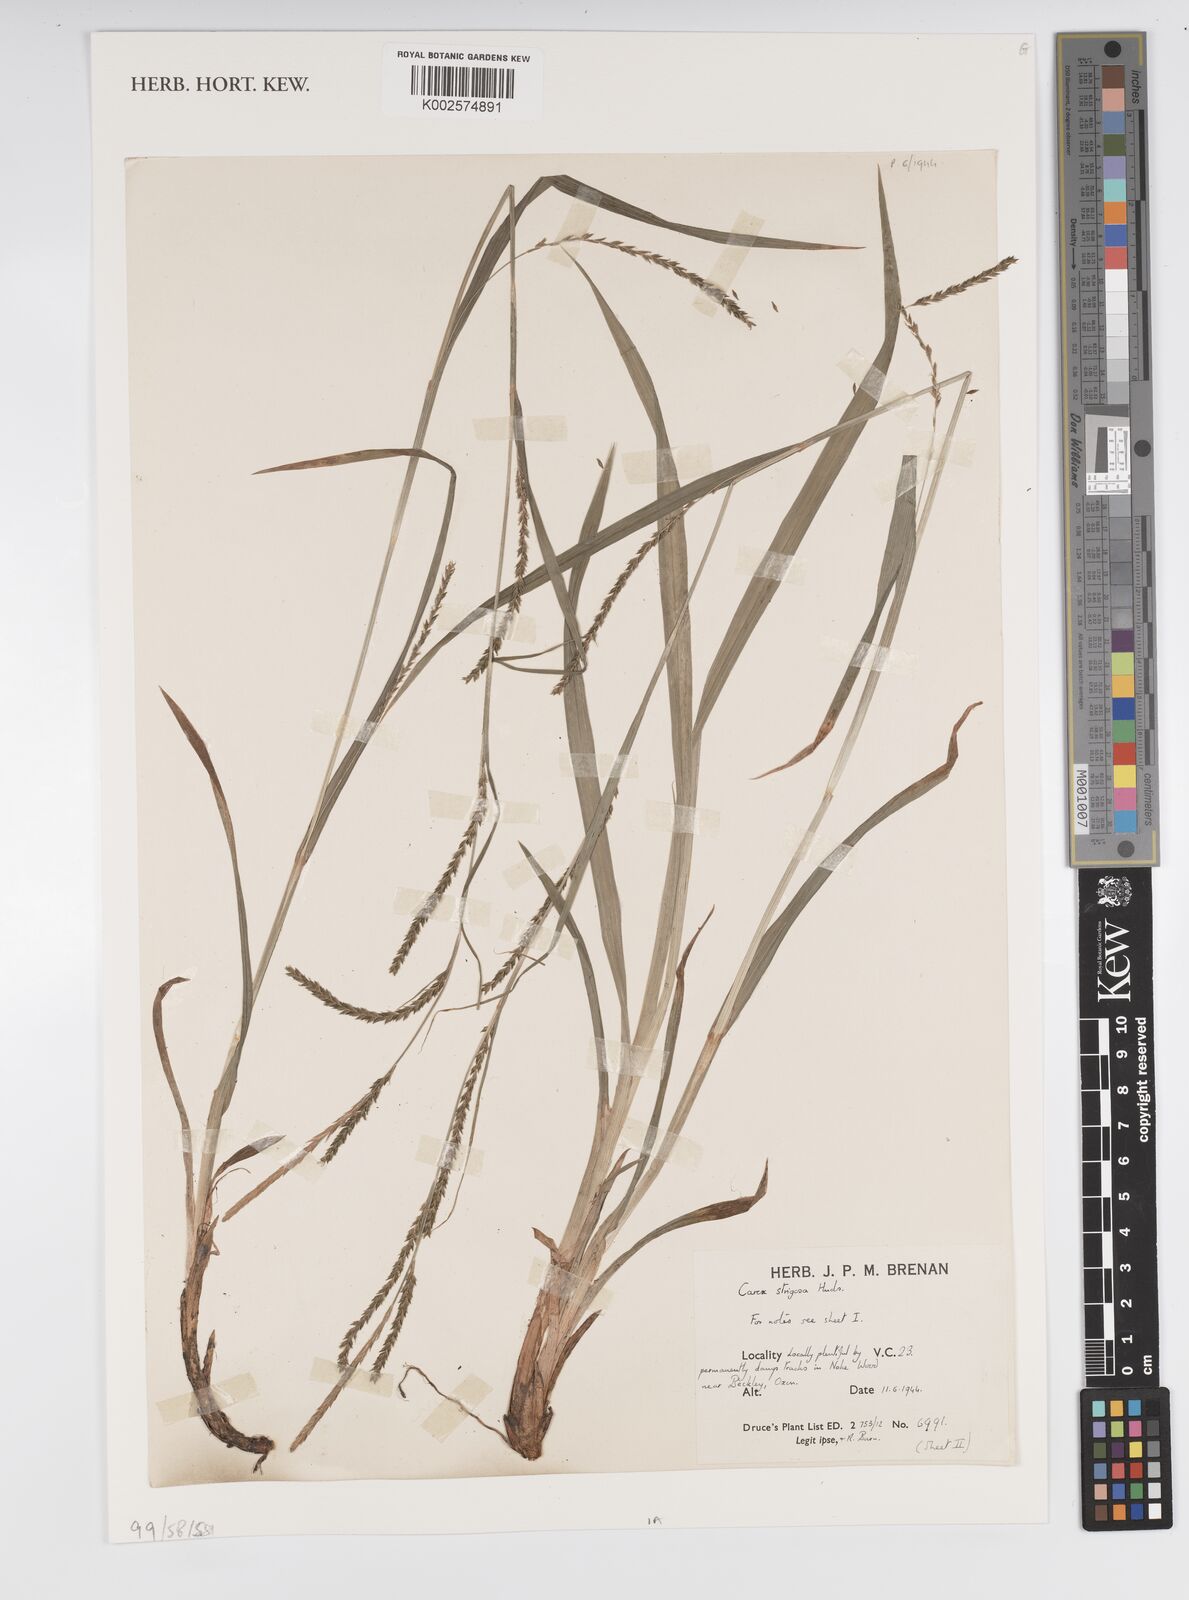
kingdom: Plantae
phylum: Tracheophyta
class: Liliopsida
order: Poales
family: Cyperaceae
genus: Carex
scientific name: Carex strigosa
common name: Thin-spiked wood-sedge
